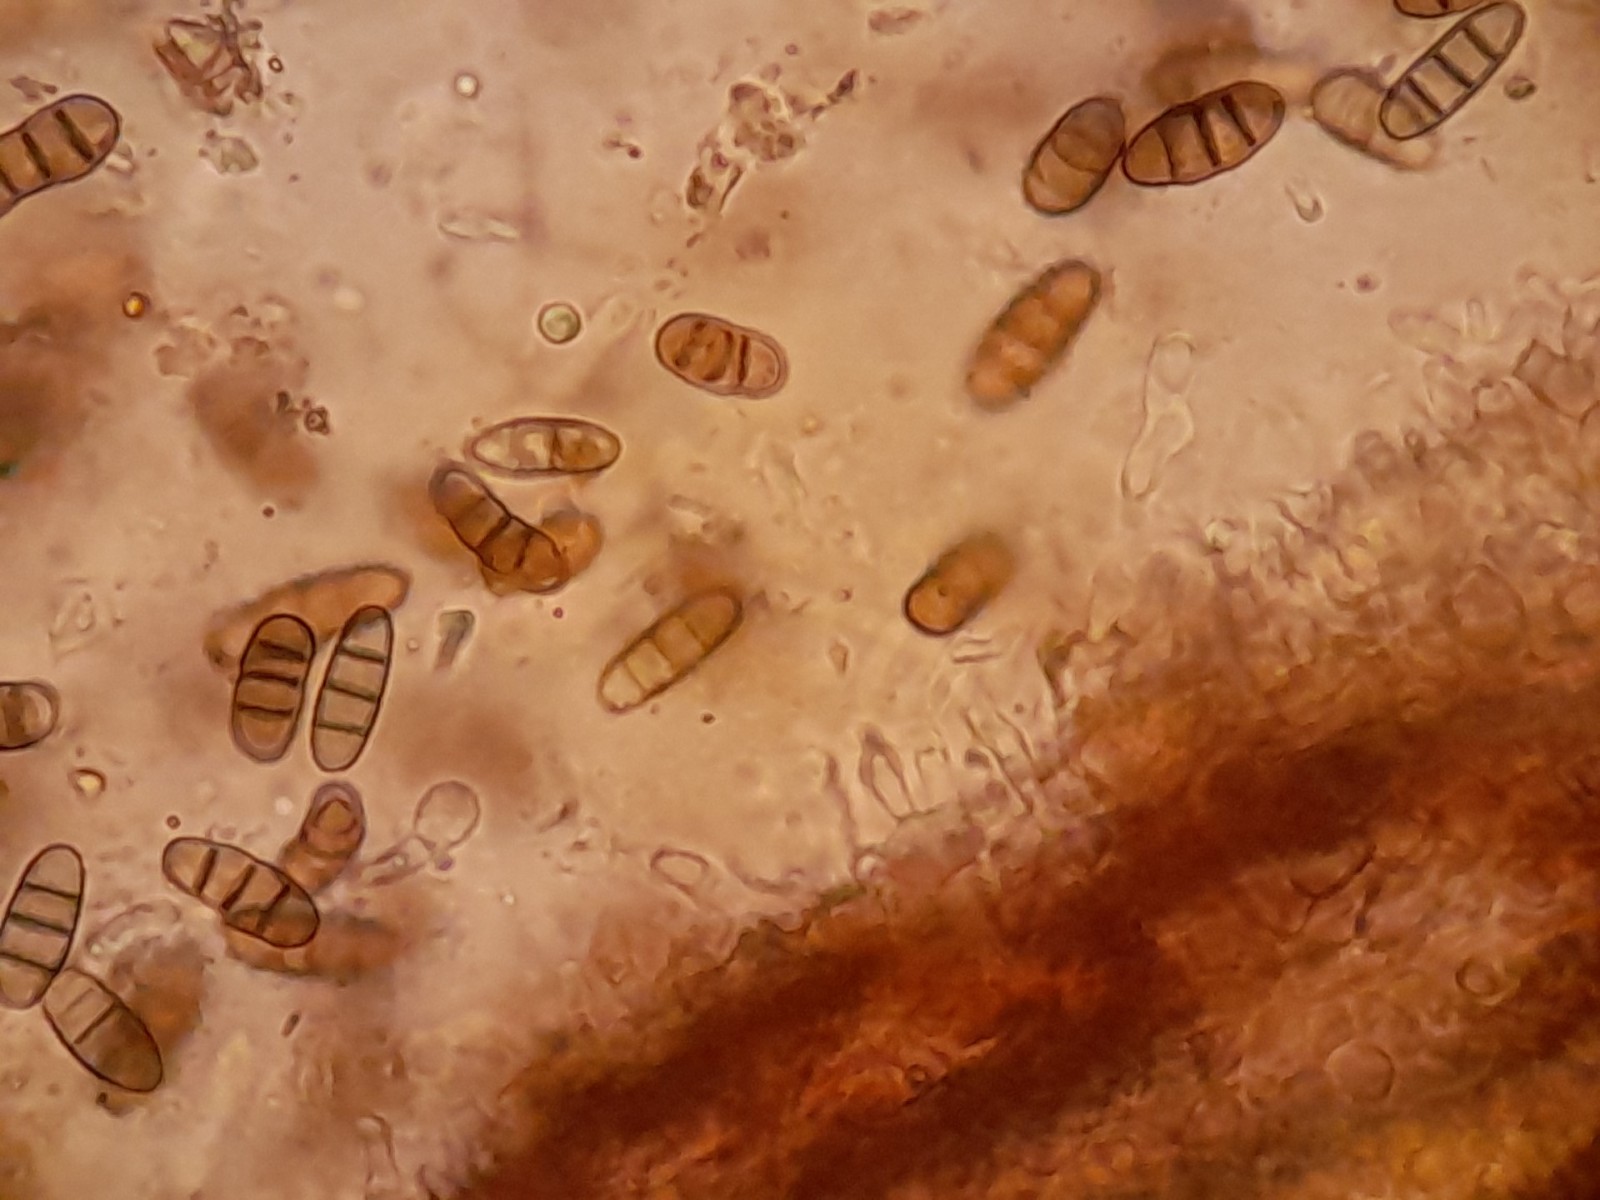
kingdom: Fungi
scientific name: Fungi
